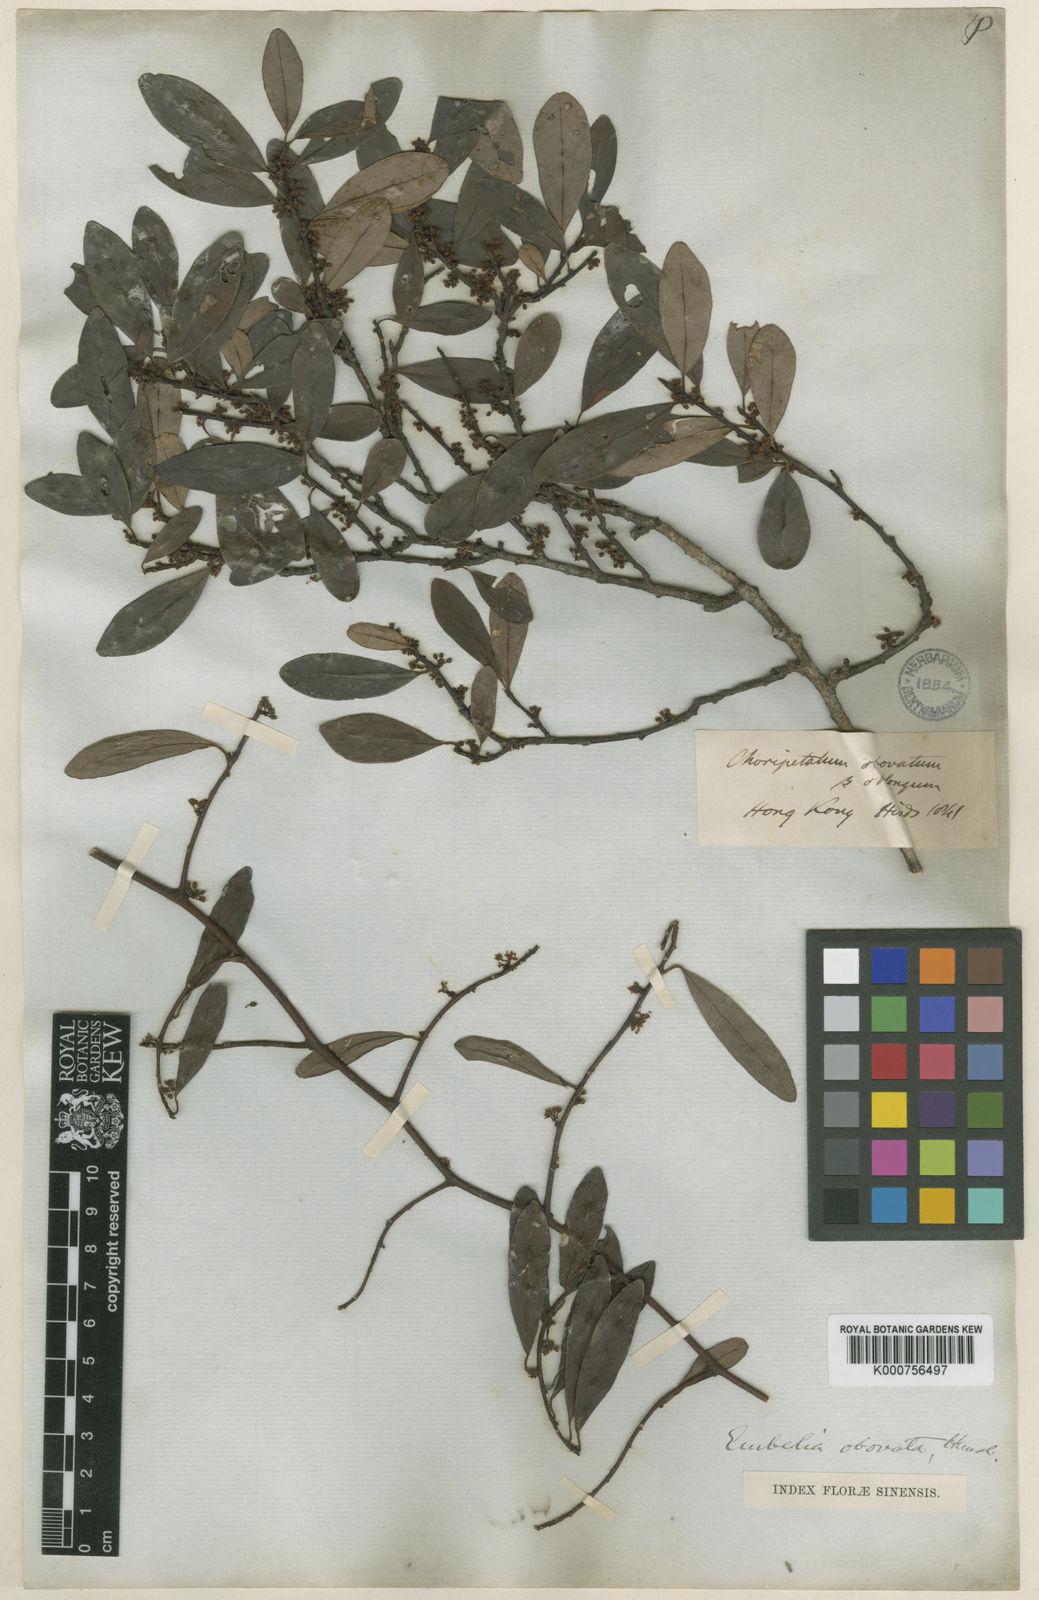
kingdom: Plantae
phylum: Tracheophyta
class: Magnoliopsida
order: Ericales
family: Primulaceae
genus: Embelia
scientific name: Embelia
